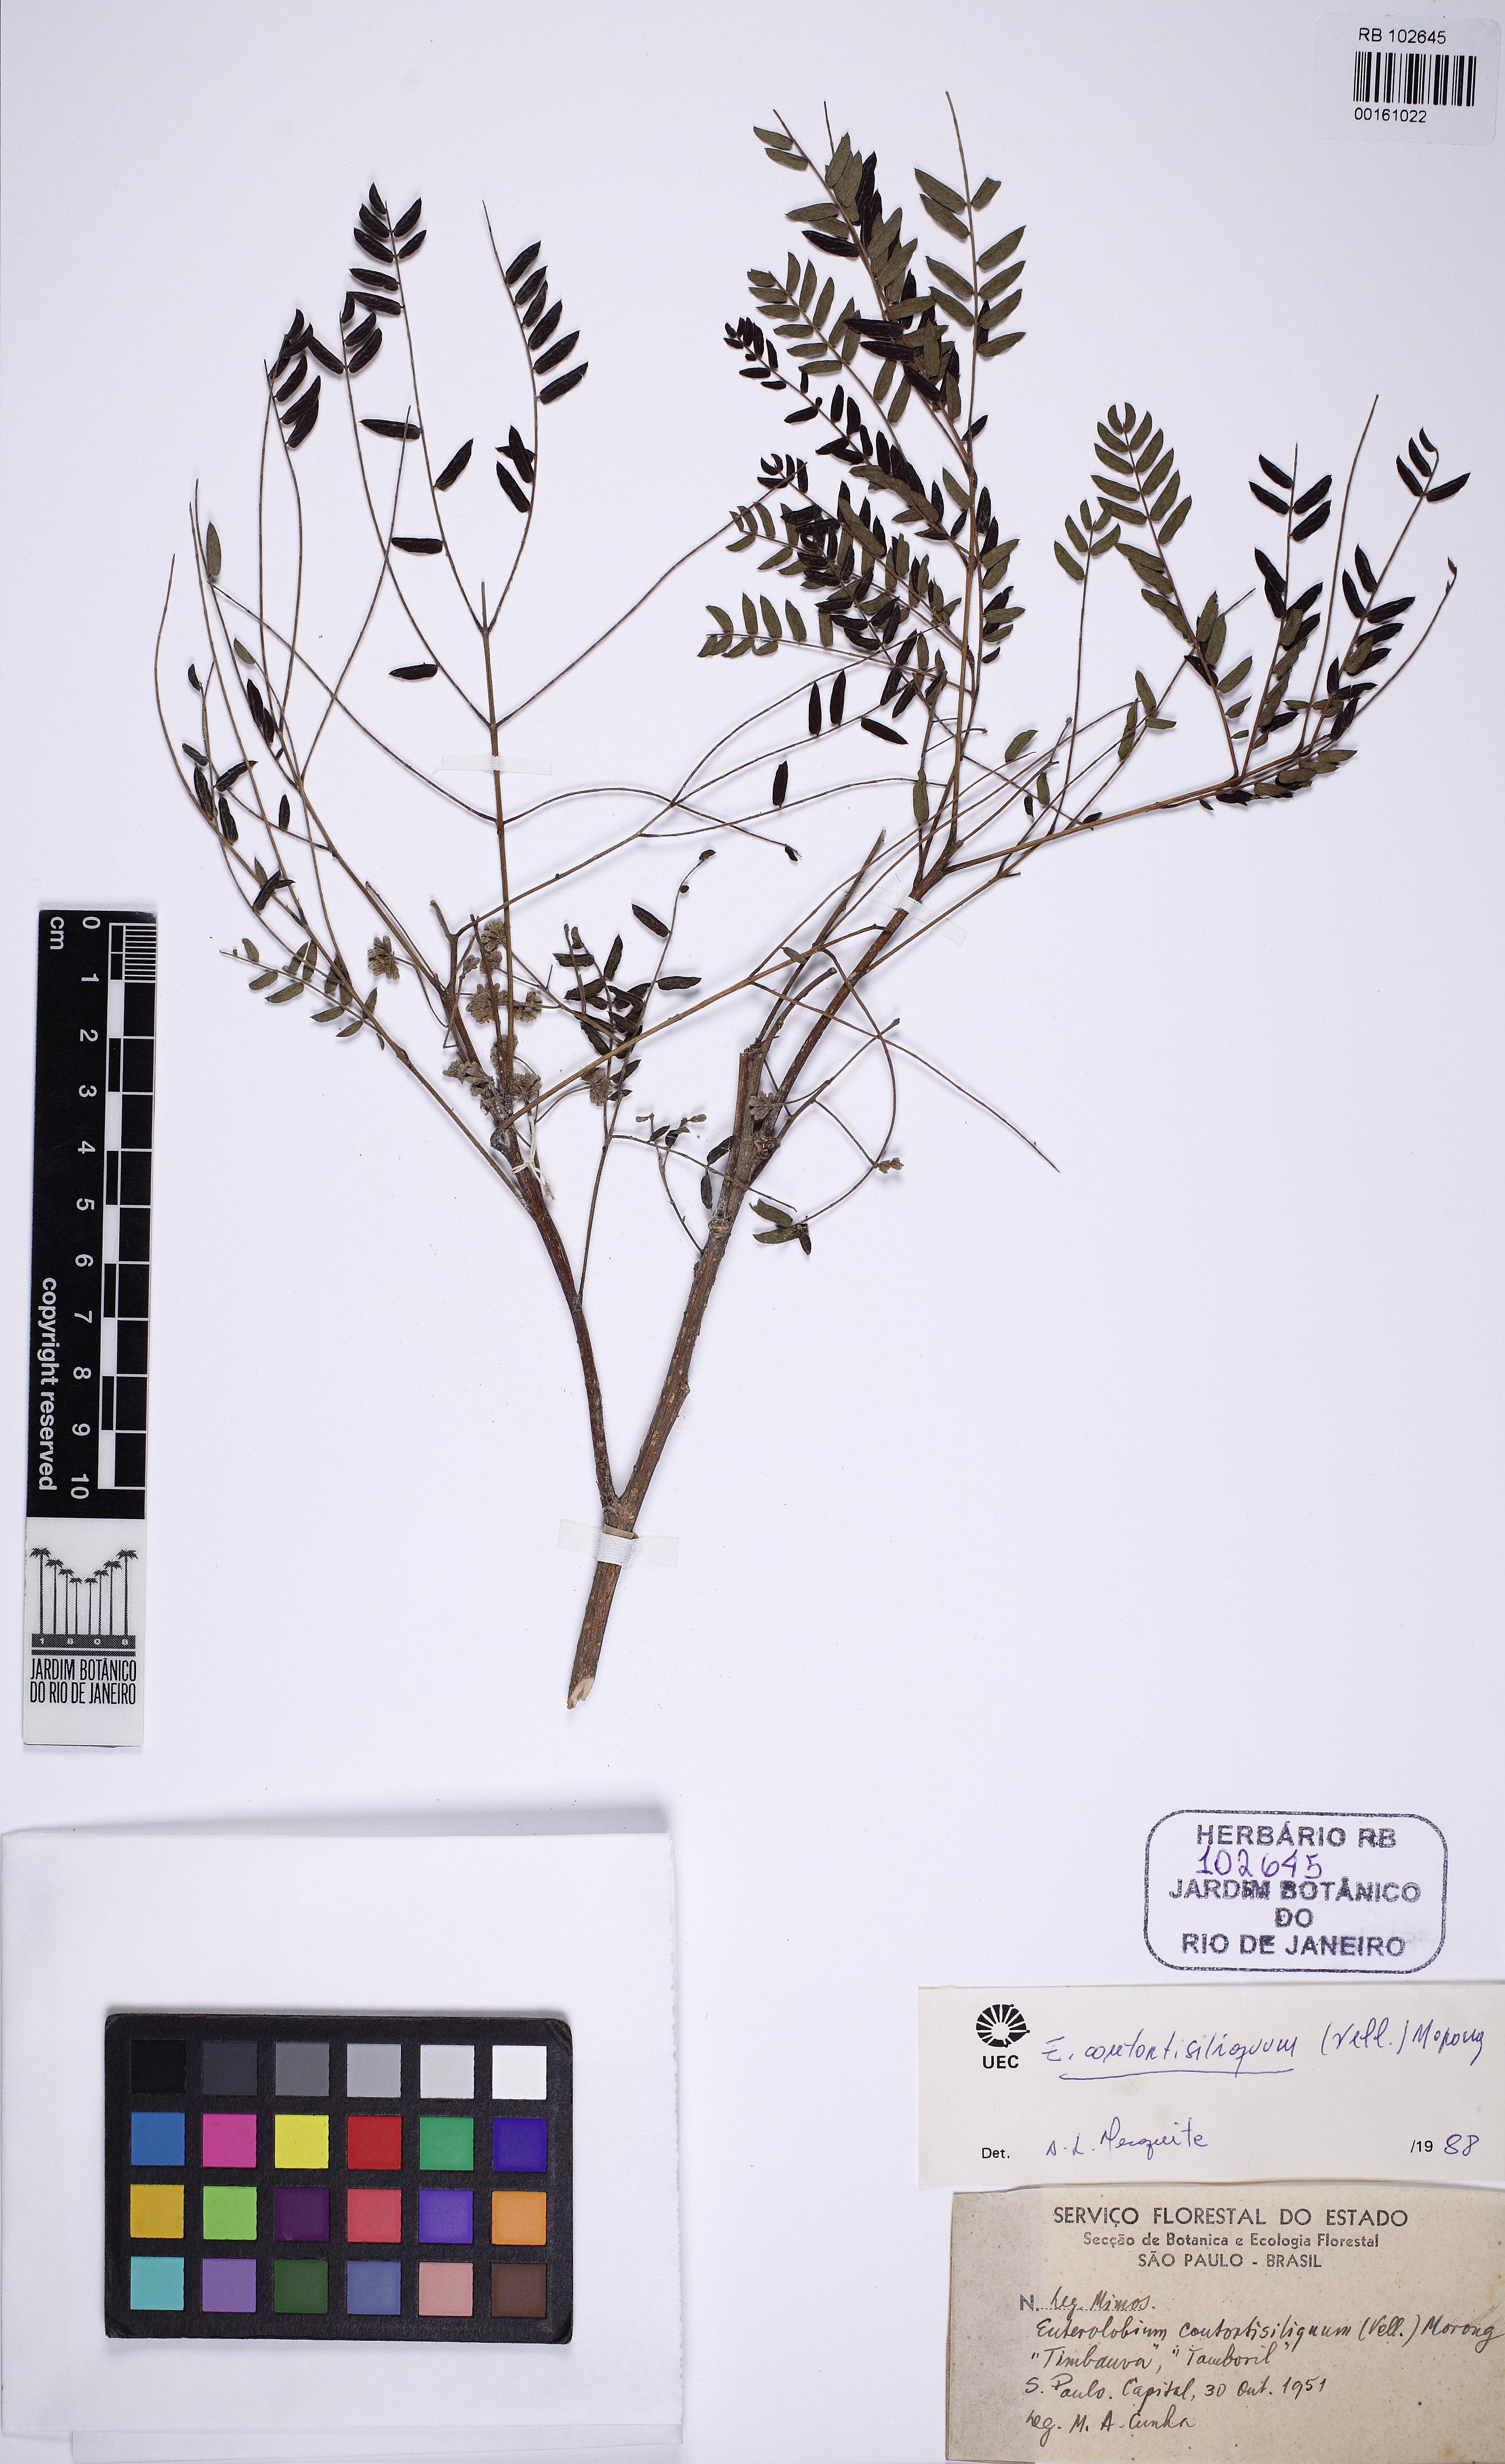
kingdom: Plantae
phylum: Tracheophyta
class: Magnoliopsida
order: Fabales
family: Fabaceae
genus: Enterolobium
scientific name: Enterolobium contortisiliquum
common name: Pacara earpod tree
